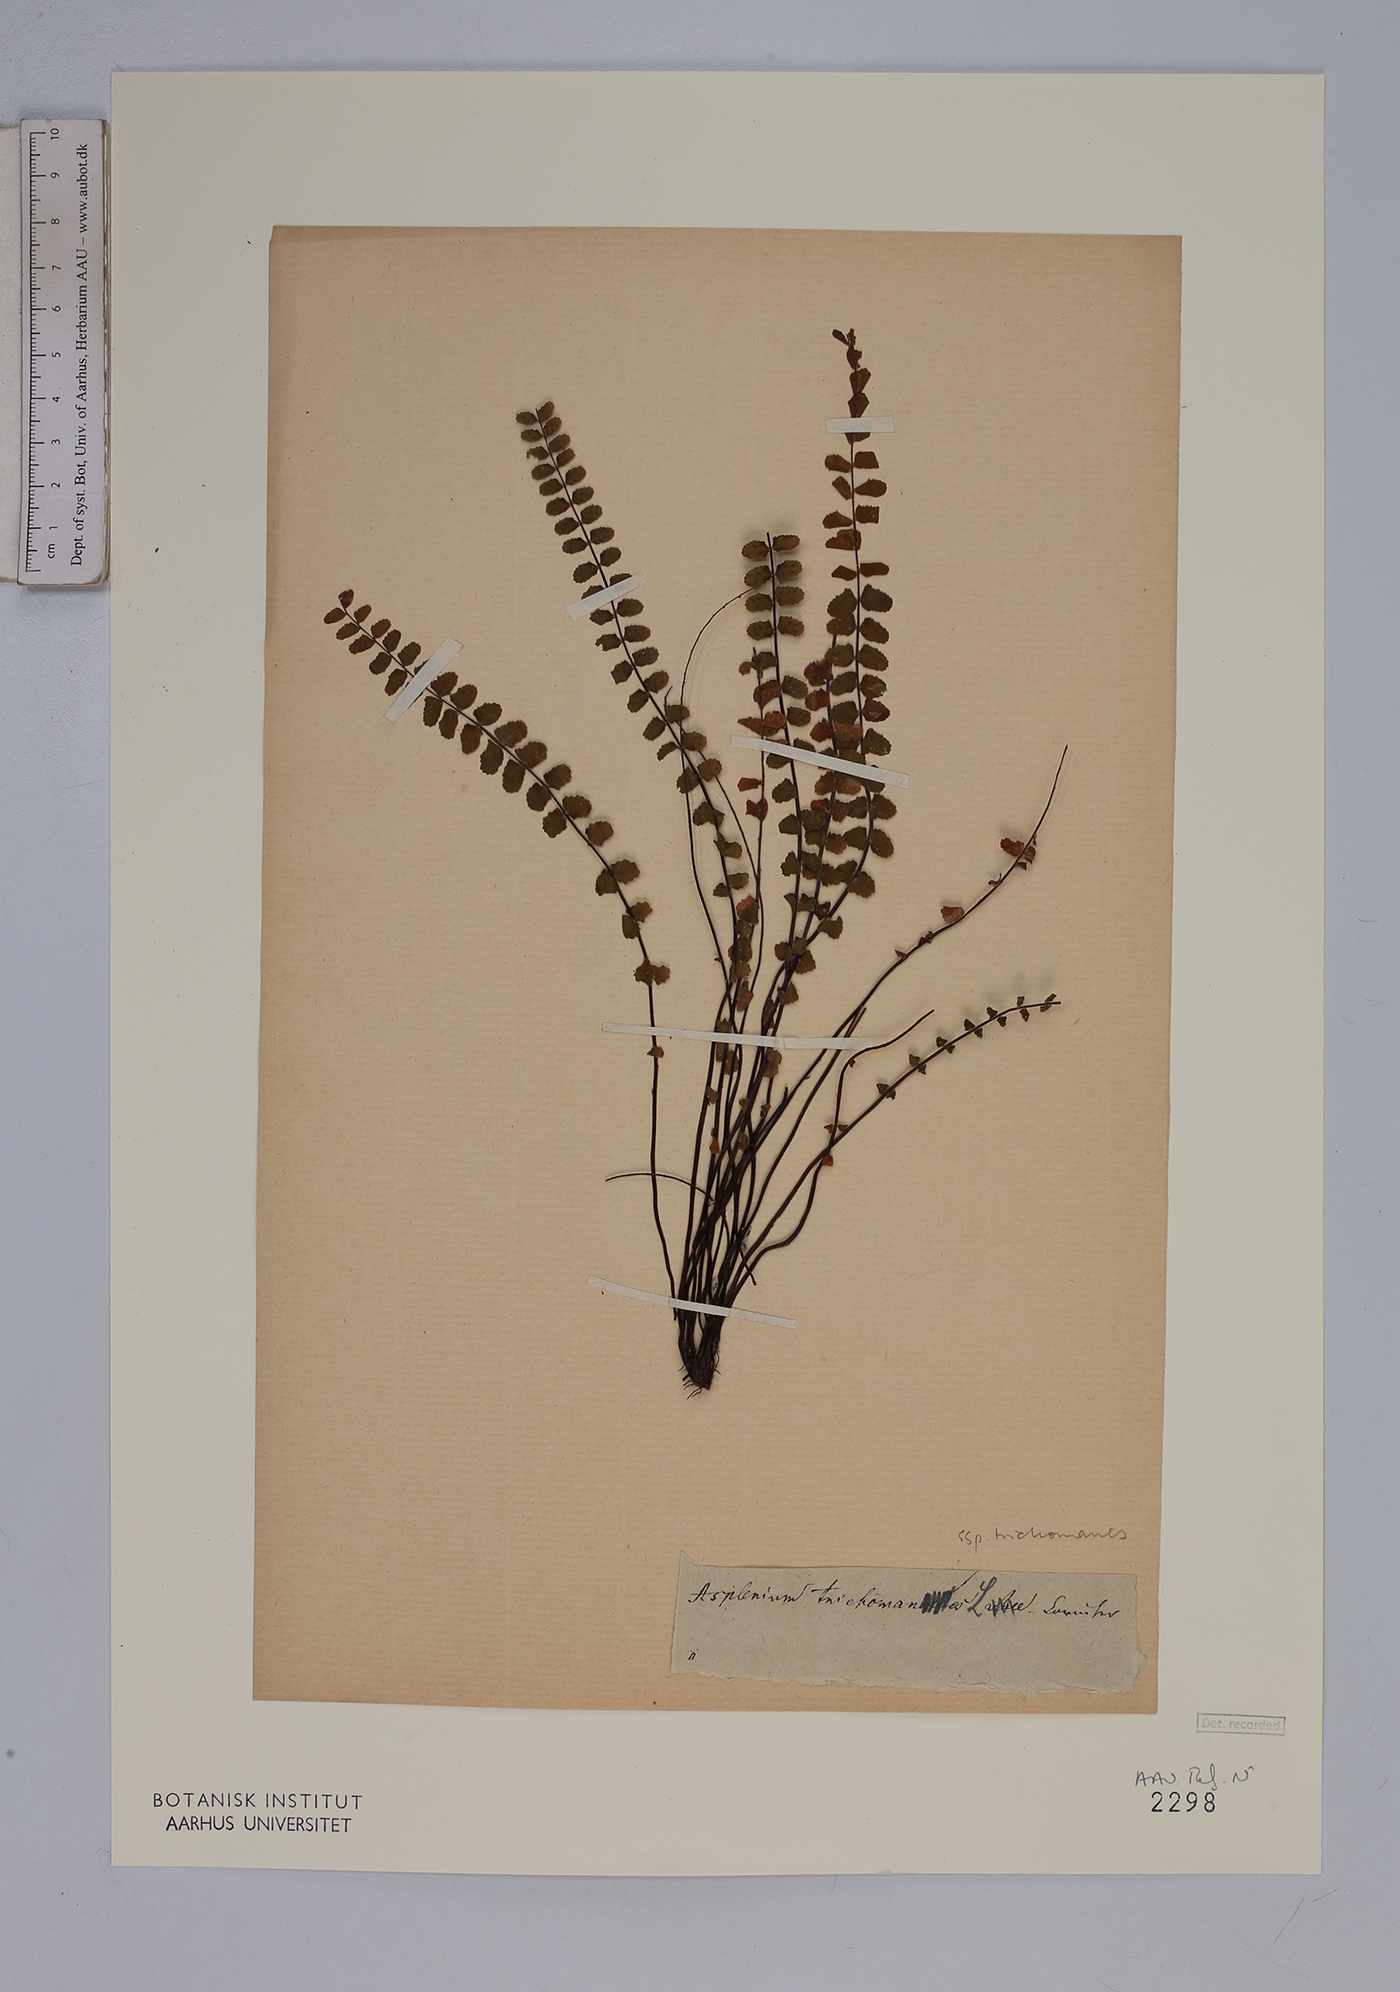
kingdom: Plantae
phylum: Tracheophyta
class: Polypodiopsida
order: Polypodiales
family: Aspleniaceae
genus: Asplenium
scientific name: Asplenium trichomanes
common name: Maidenhair spleenwort
